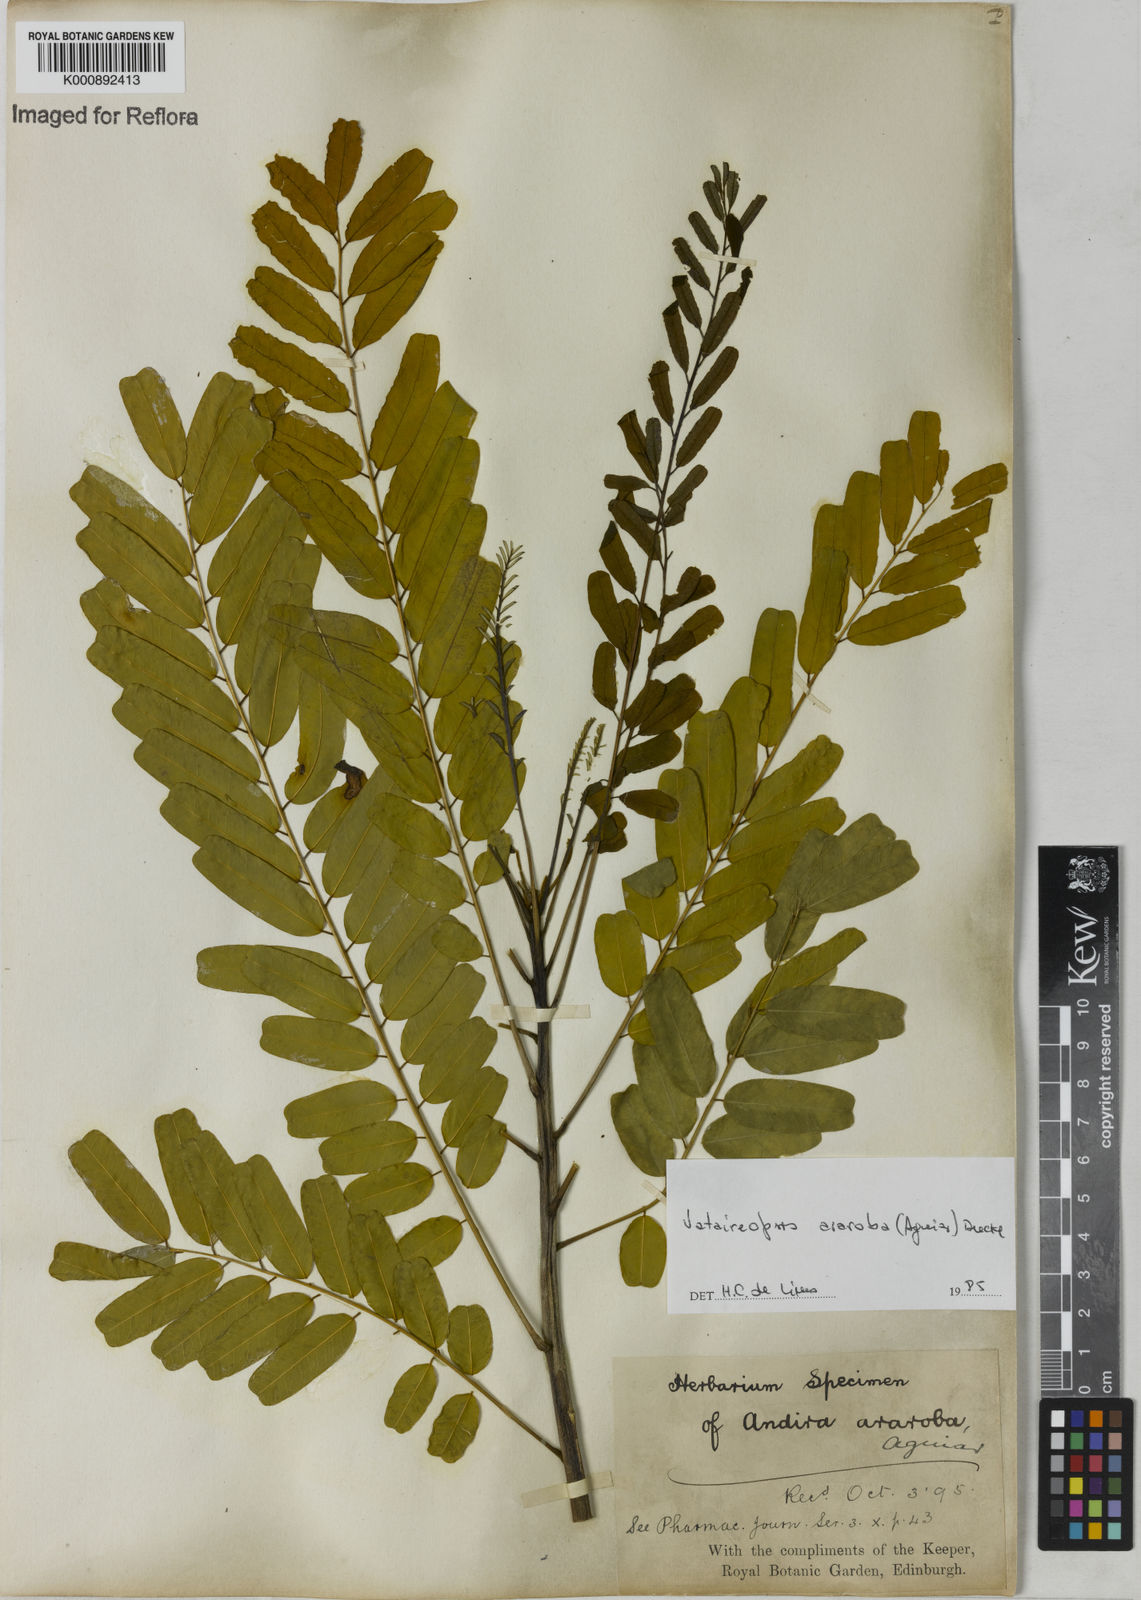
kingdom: Plantae
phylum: Tracheophyta
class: Magnoliopsida
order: Fabales
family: Fabaceae
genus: Vataireopsis
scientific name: Vataireopsis araroba
